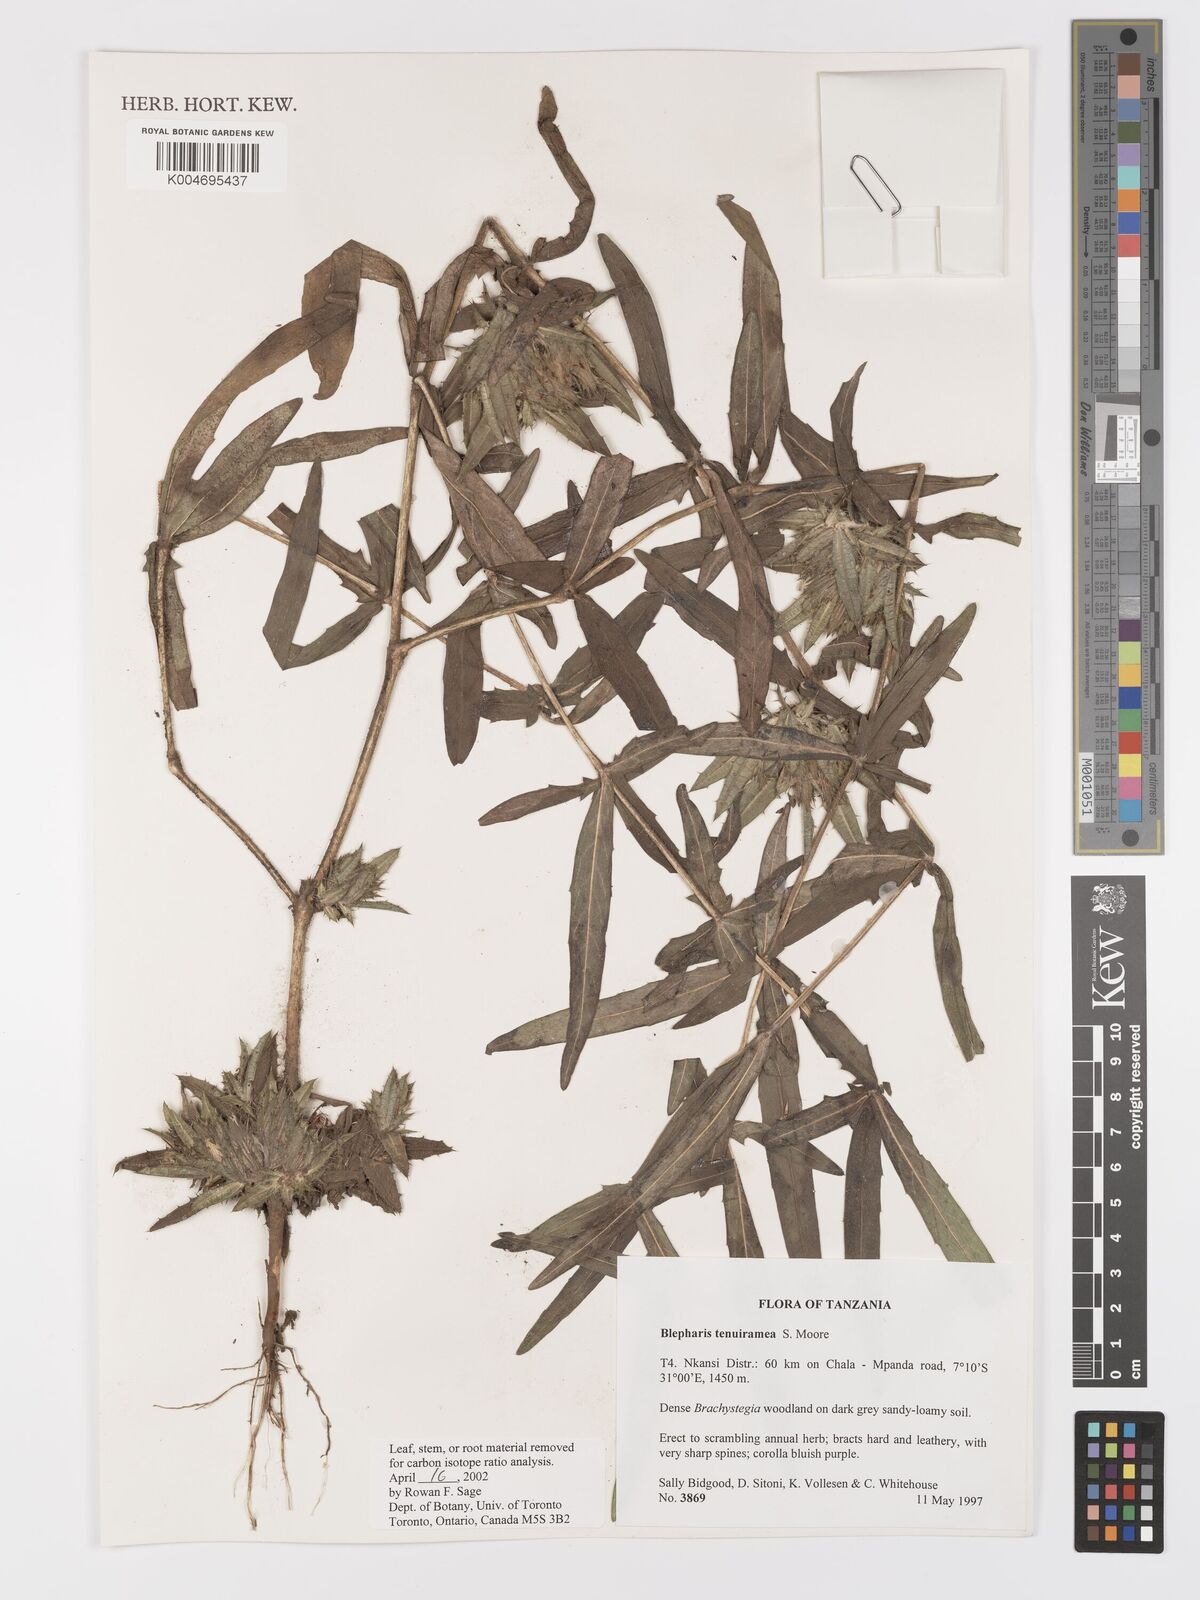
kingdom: Plantae
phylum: Tracheophyta
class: Magnoliopsida
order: Lamiales
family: Acanthaceae
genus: Blepharis
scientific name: Blepharis tenuiramea
